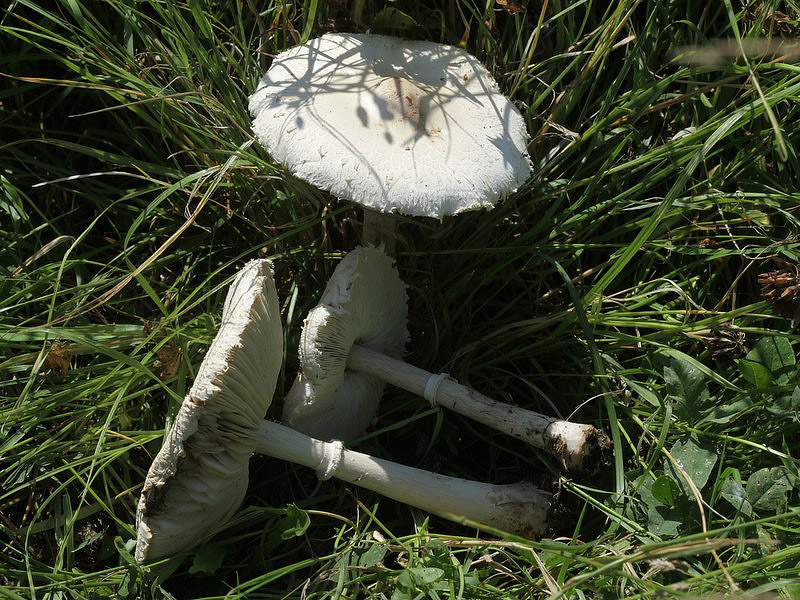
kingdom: Fungi
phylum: Basidiomycota
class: Agaricomycetes
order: Agaricales
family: Agaricaceae
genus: Macrolepiota
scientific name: Macrolepiota excoriata
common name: mark-kæmpeparasolhat
